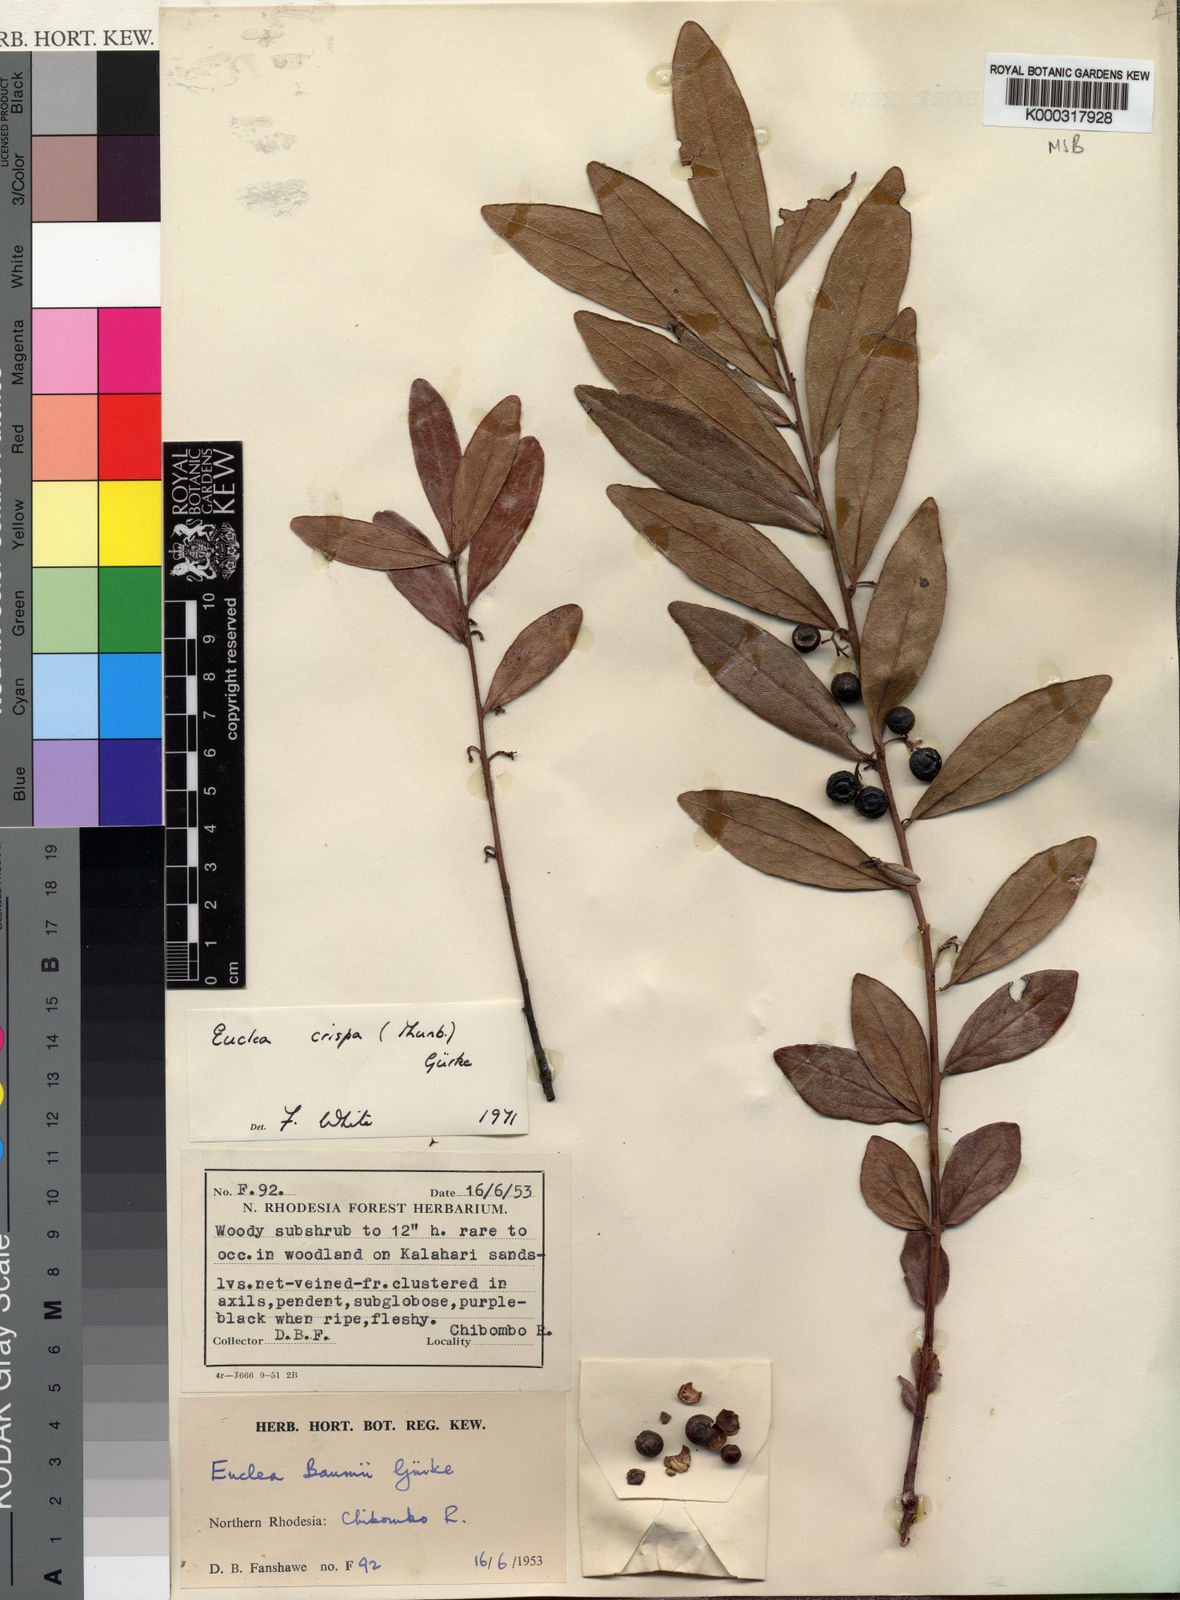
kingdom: Plantae
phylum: Tracheophyta
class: Magnoliopsida
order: Ericales
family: Ebenaceae
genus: Euclea
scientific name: Euclea
